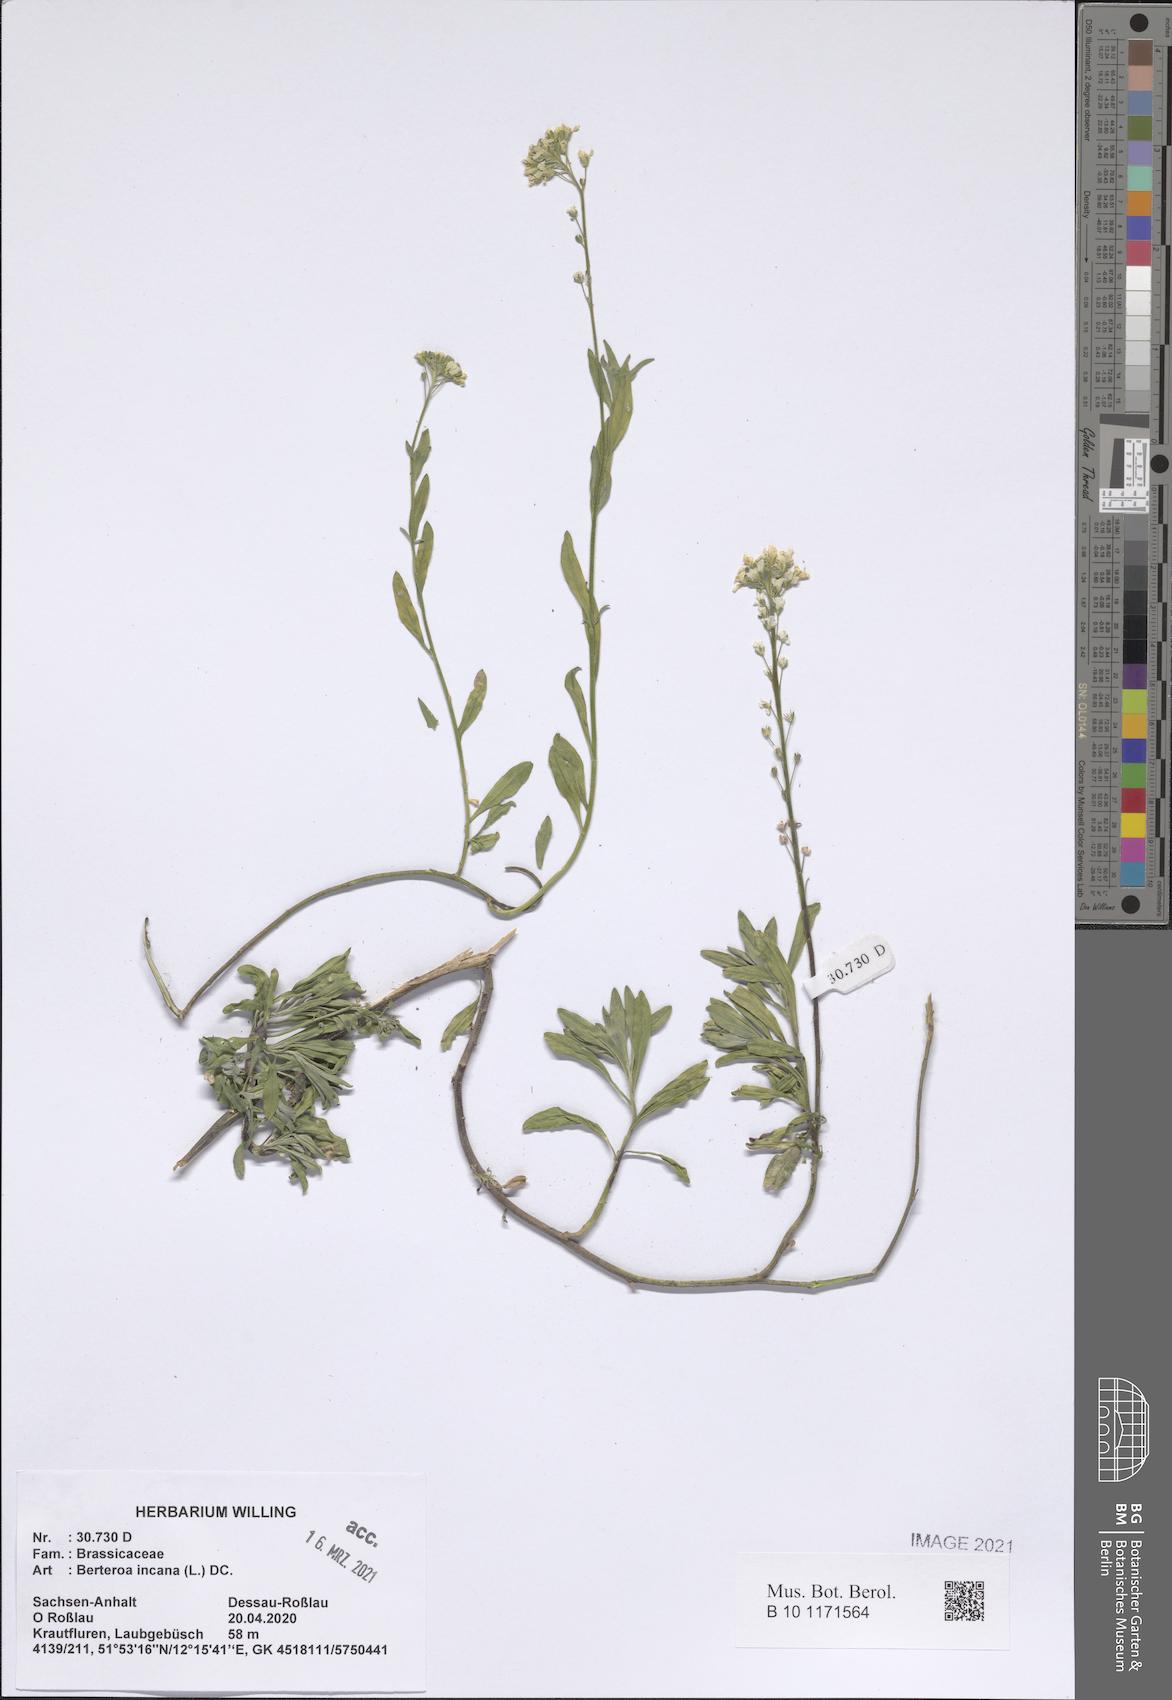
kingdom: Plantae
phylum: Tracheophyta
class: Magnoliopsida
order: Brassicales
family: Brassicaceae
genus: Berteroa
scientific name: Berteroa incana
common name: Hoary alison
